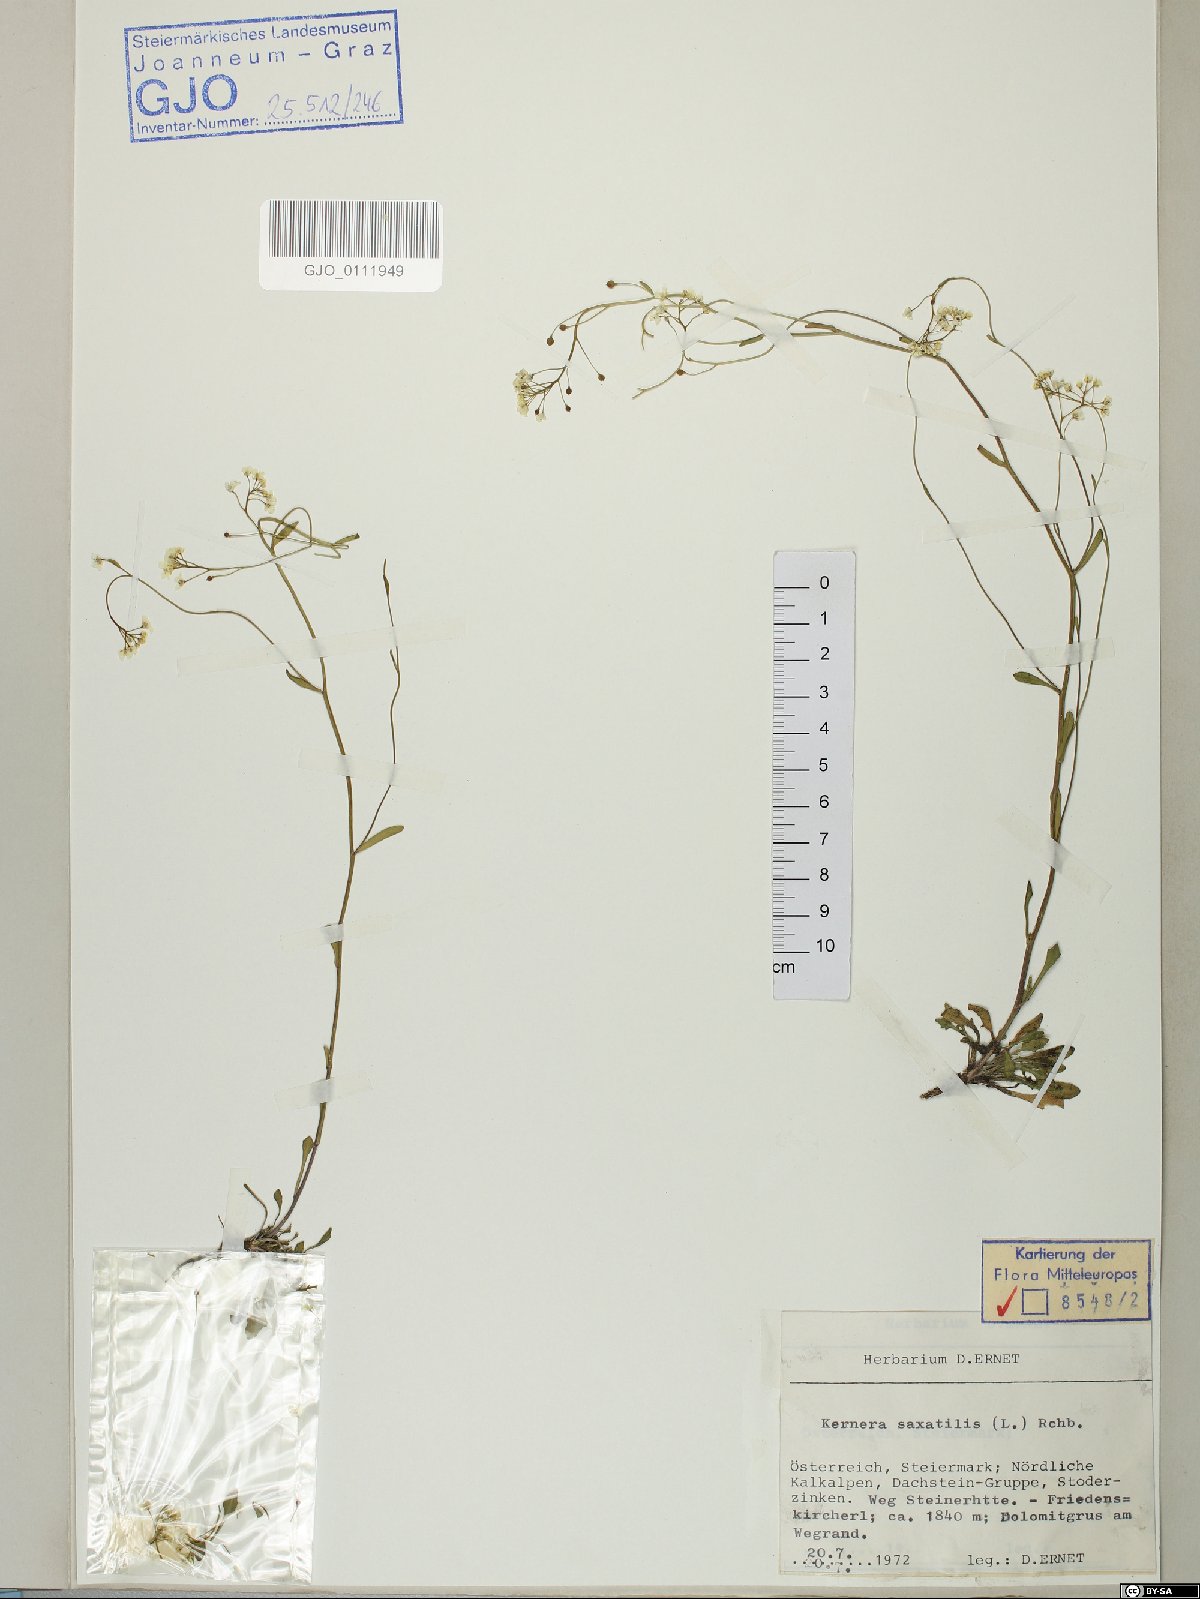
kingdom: Plantae
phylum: Tracheophyta
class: Magnoliopsida
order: Brassicales
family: Brassicaceae
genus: Kernera
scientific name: Kernera saxatilis
